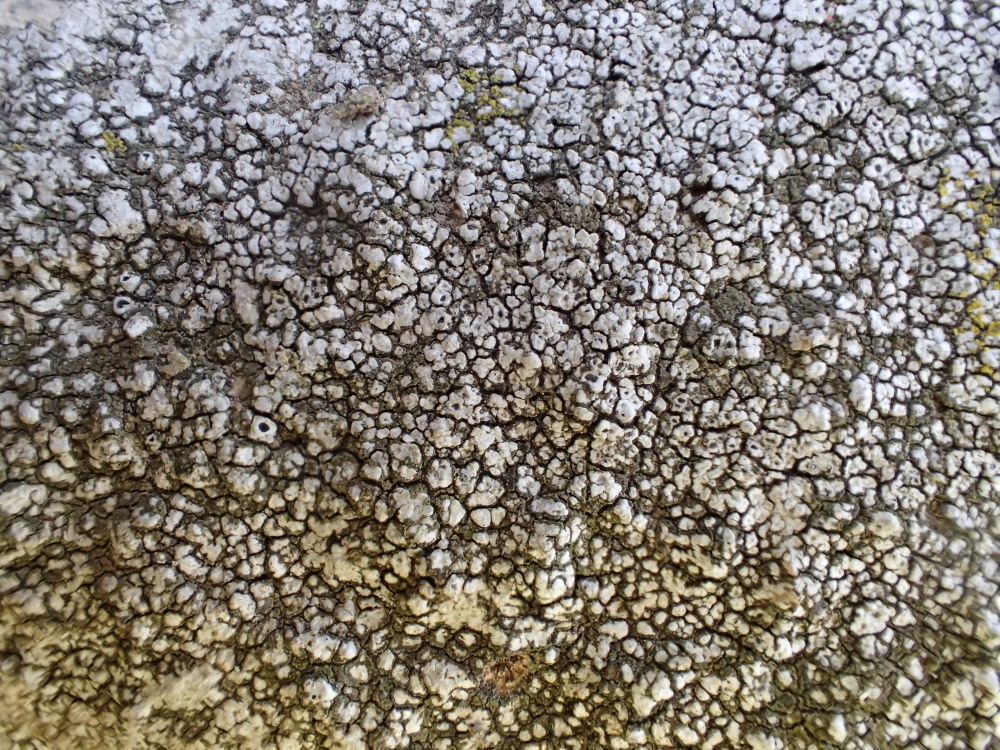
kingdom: Fungi
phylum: Ascomycota
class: Lecanoromycetes
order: Pertusariales
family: Megasporaceae
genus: Circinaria
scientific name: Circinaria caesiocinerea
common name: fuglestens-hulskivelav
